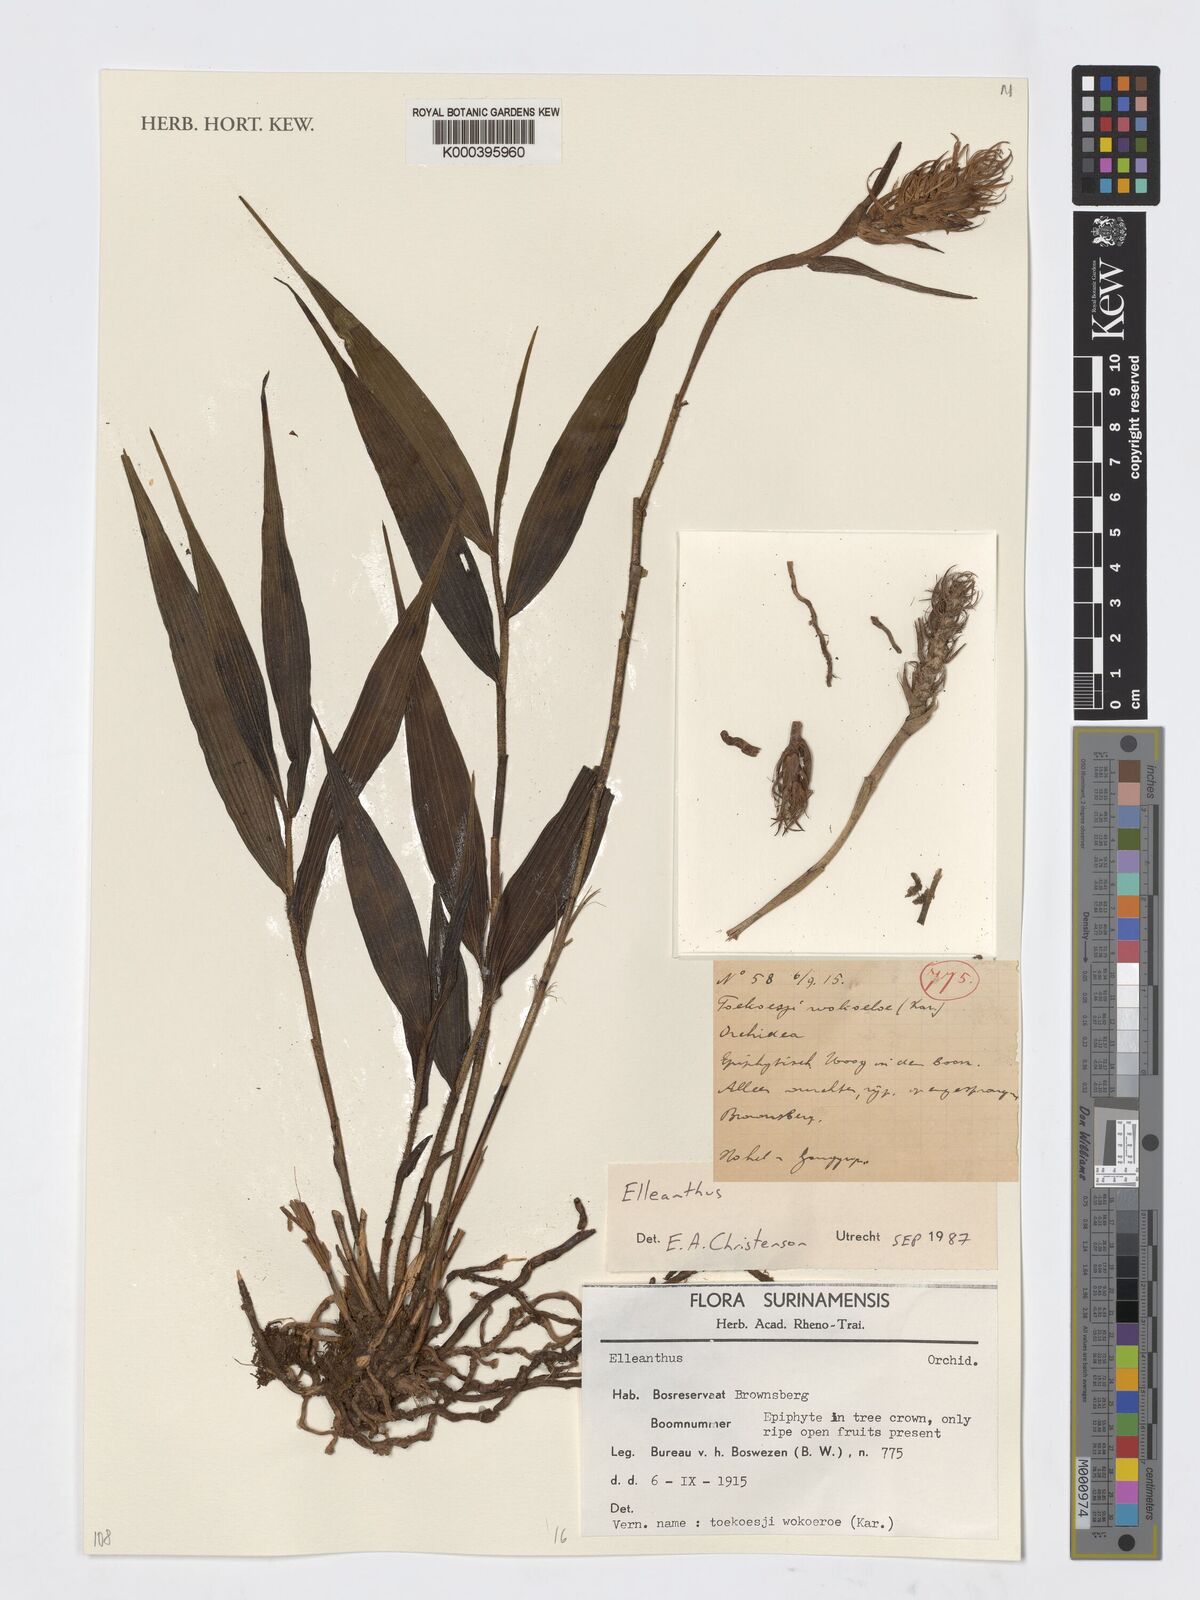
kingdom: Plantae
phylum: Tracheophyta
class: Liliopsida
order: Asparagales
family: Orchidaceae
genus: Elleanthus
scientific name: Elleanthus
